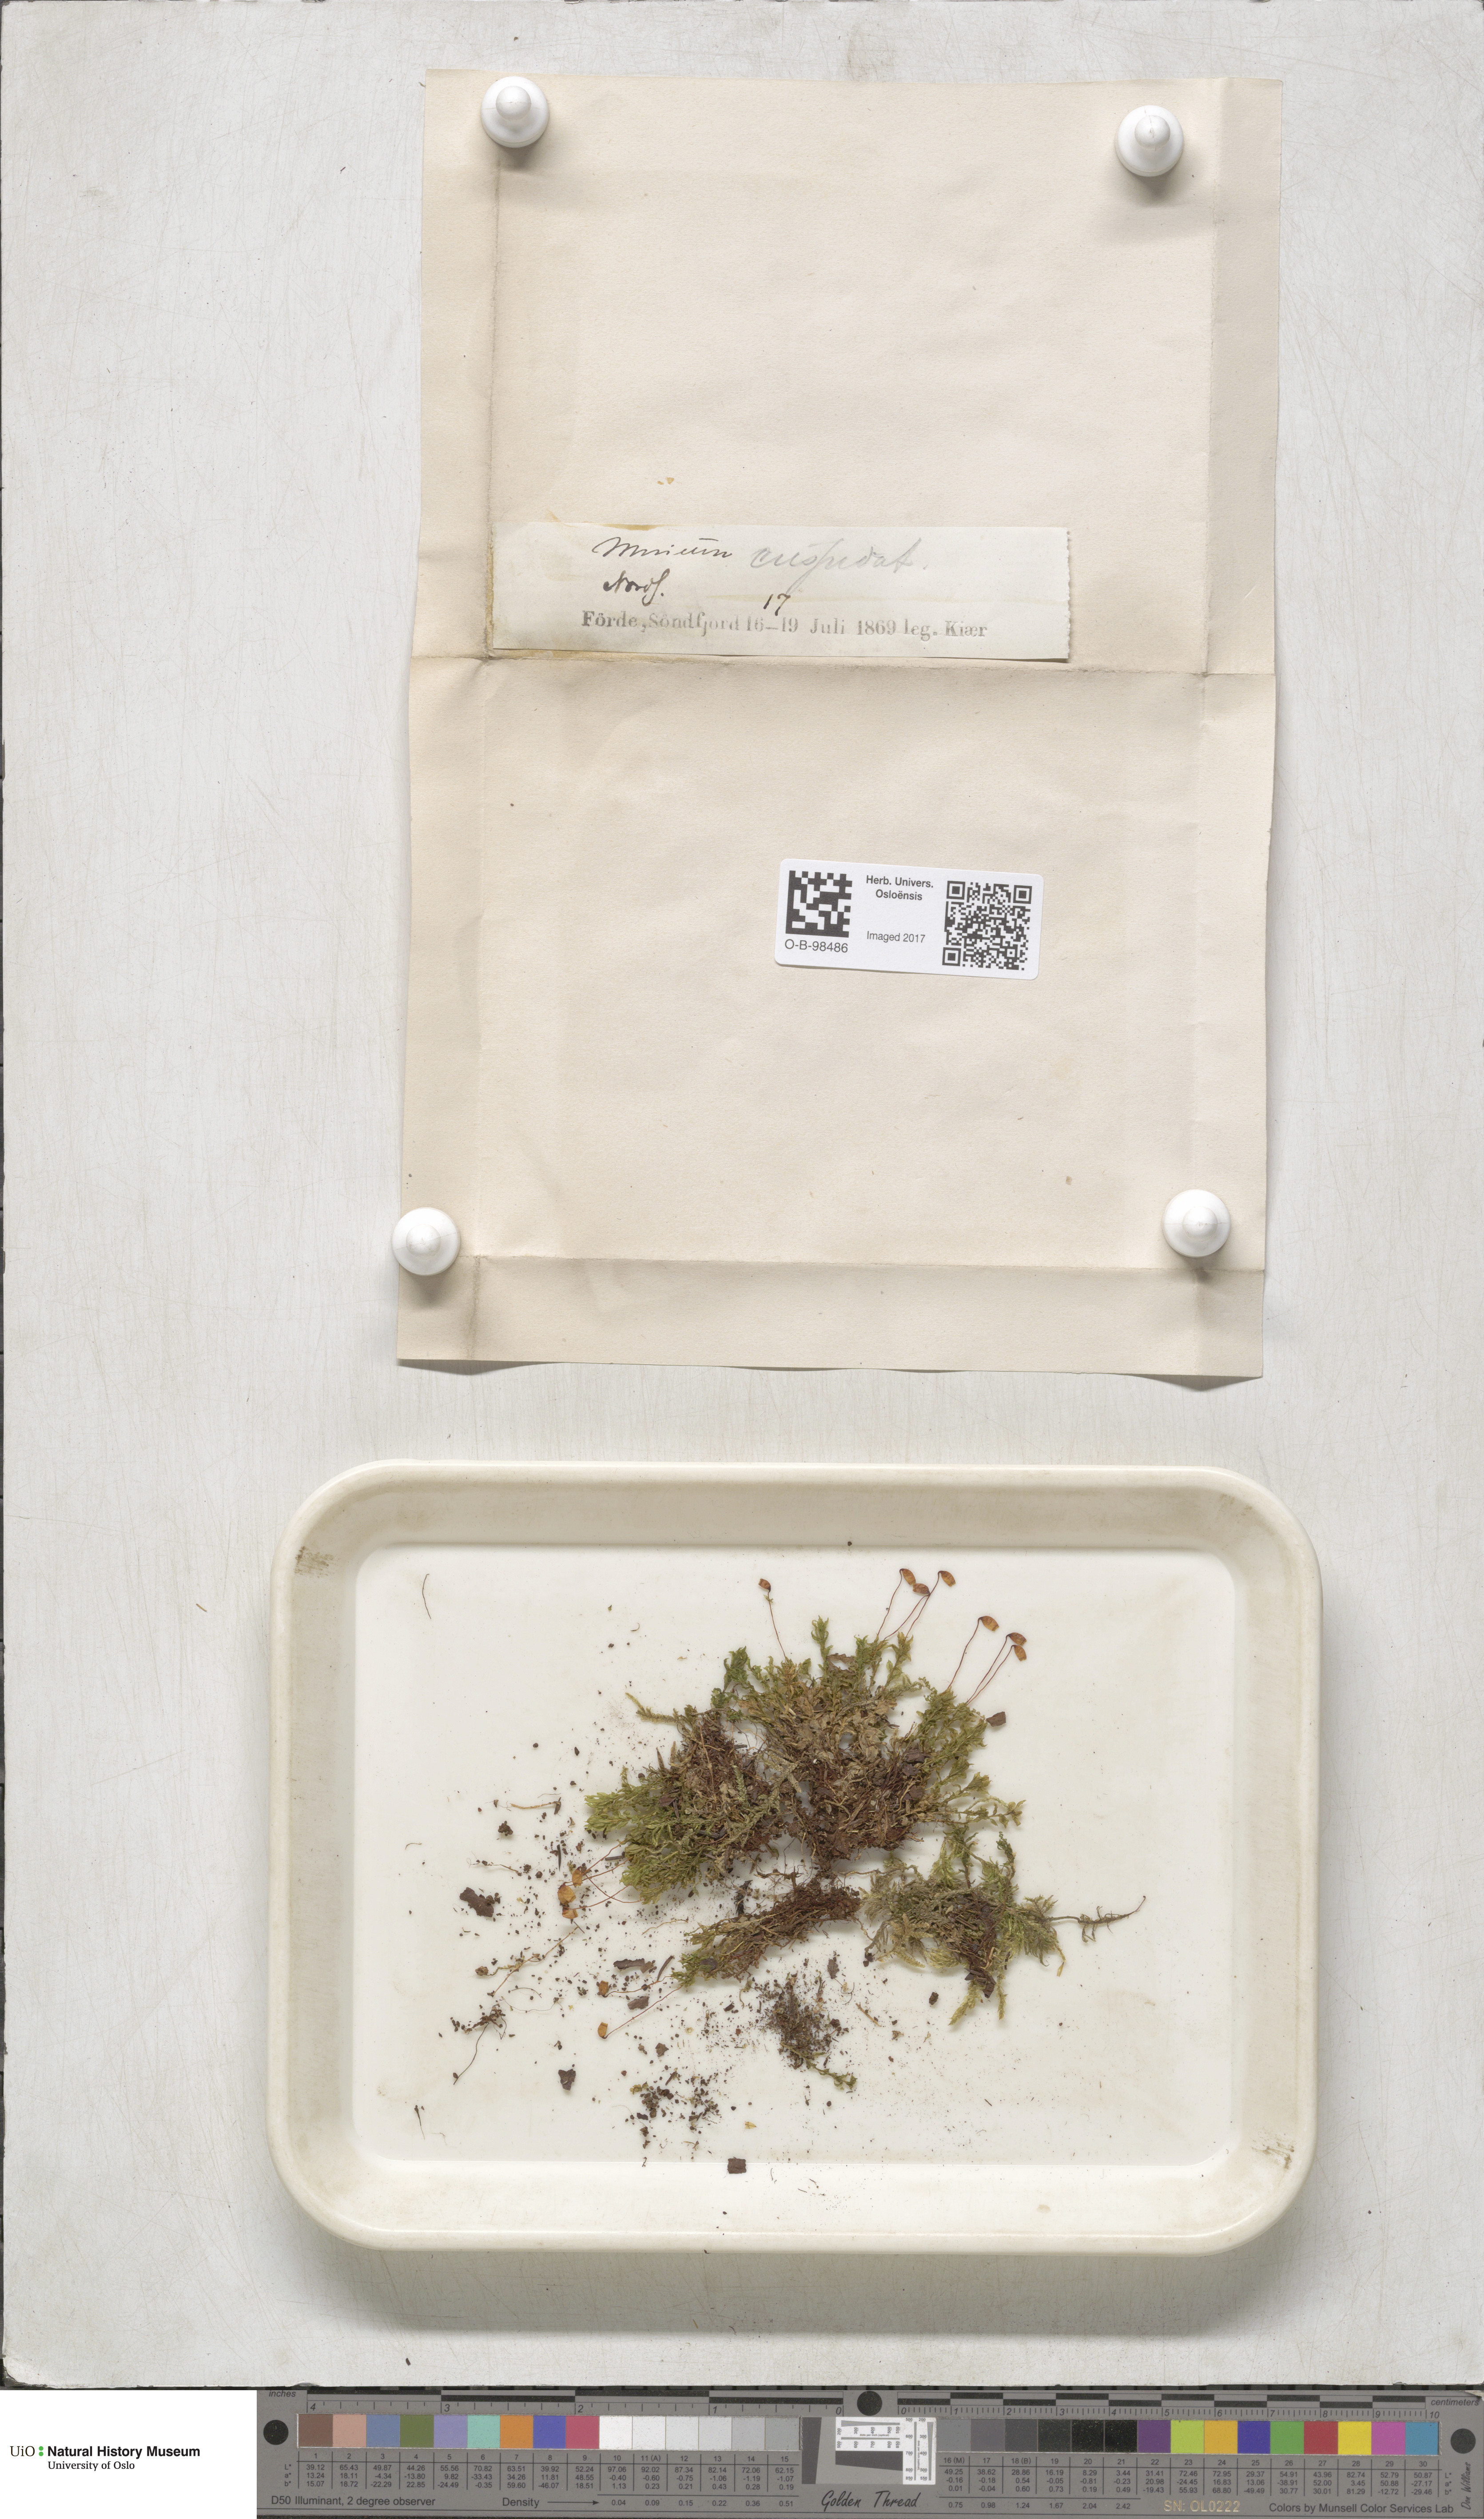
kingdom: Plantae
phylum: Bryophyta
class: Bryopsida
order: Bryales
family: Mniaceae
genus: Plagiomnium
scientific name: Plagiomnium cuspidatum
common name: Woodsy leafy moss
